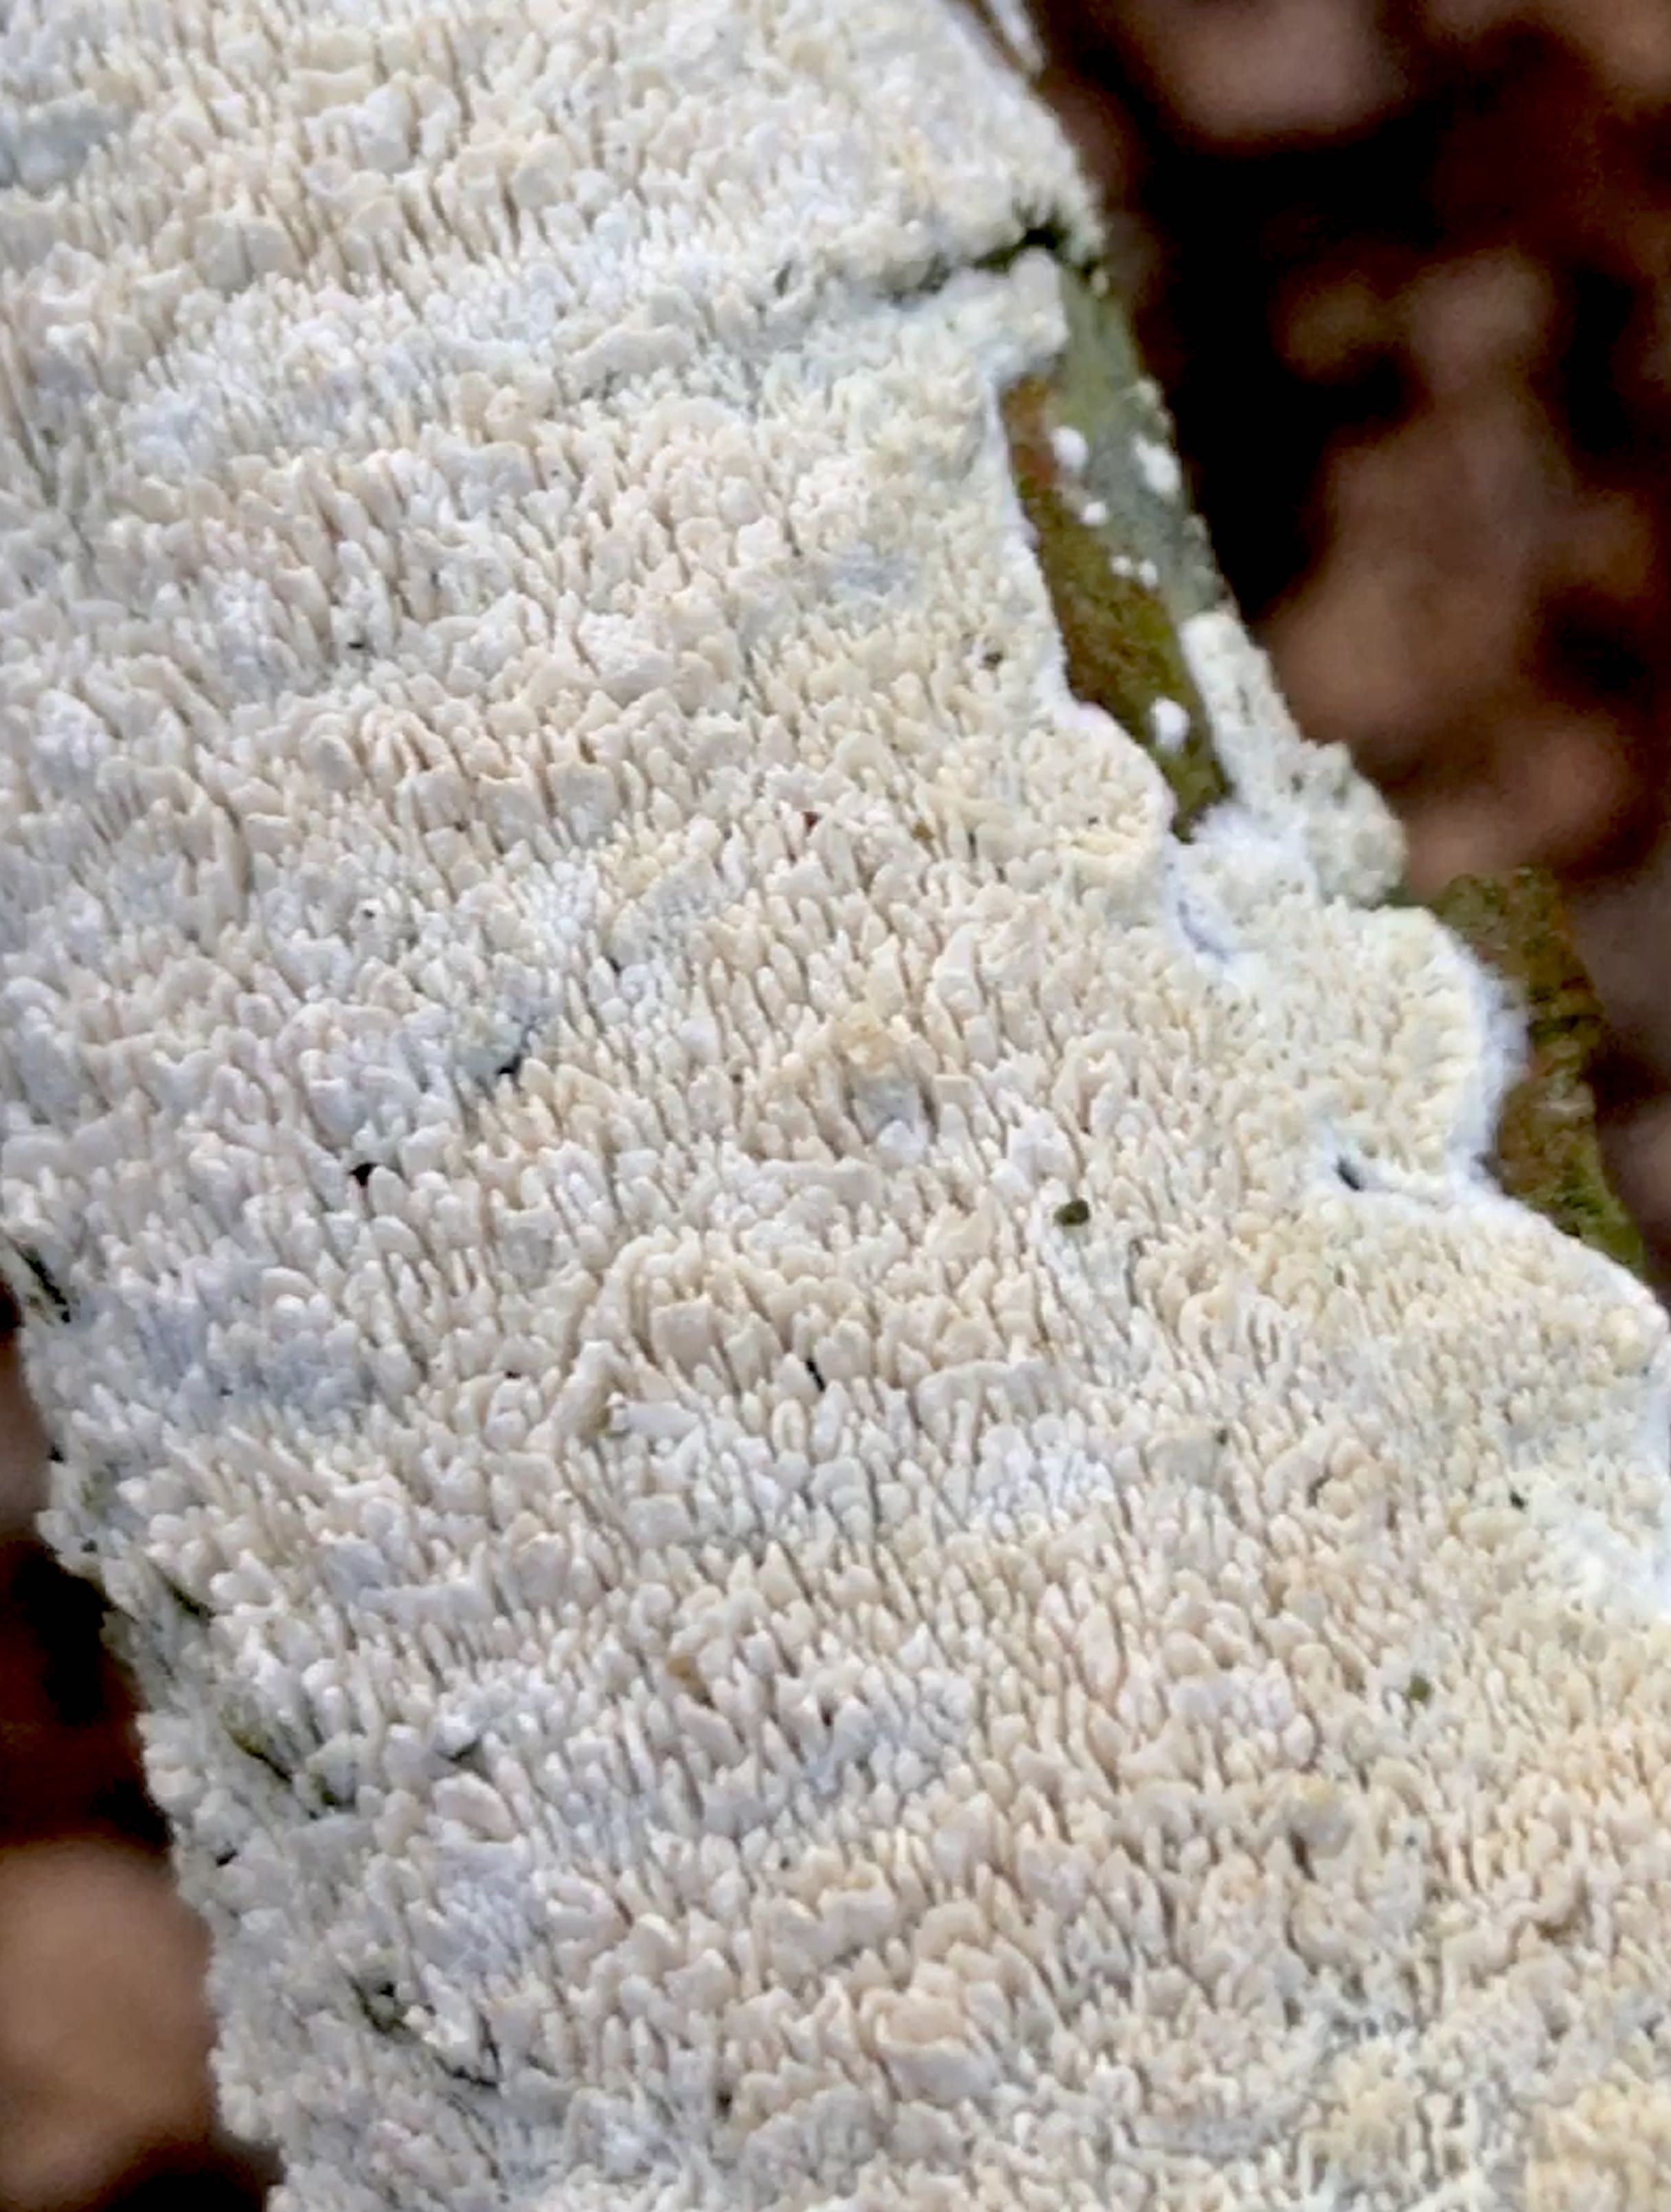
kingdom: Fungi
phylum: Basidiomycota
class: Agaricomycetes
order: Hymenochaetales
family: Schizoporaceae
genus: Schizopora
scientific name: Schizopora paradoxa
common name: hvid tandsvamp
